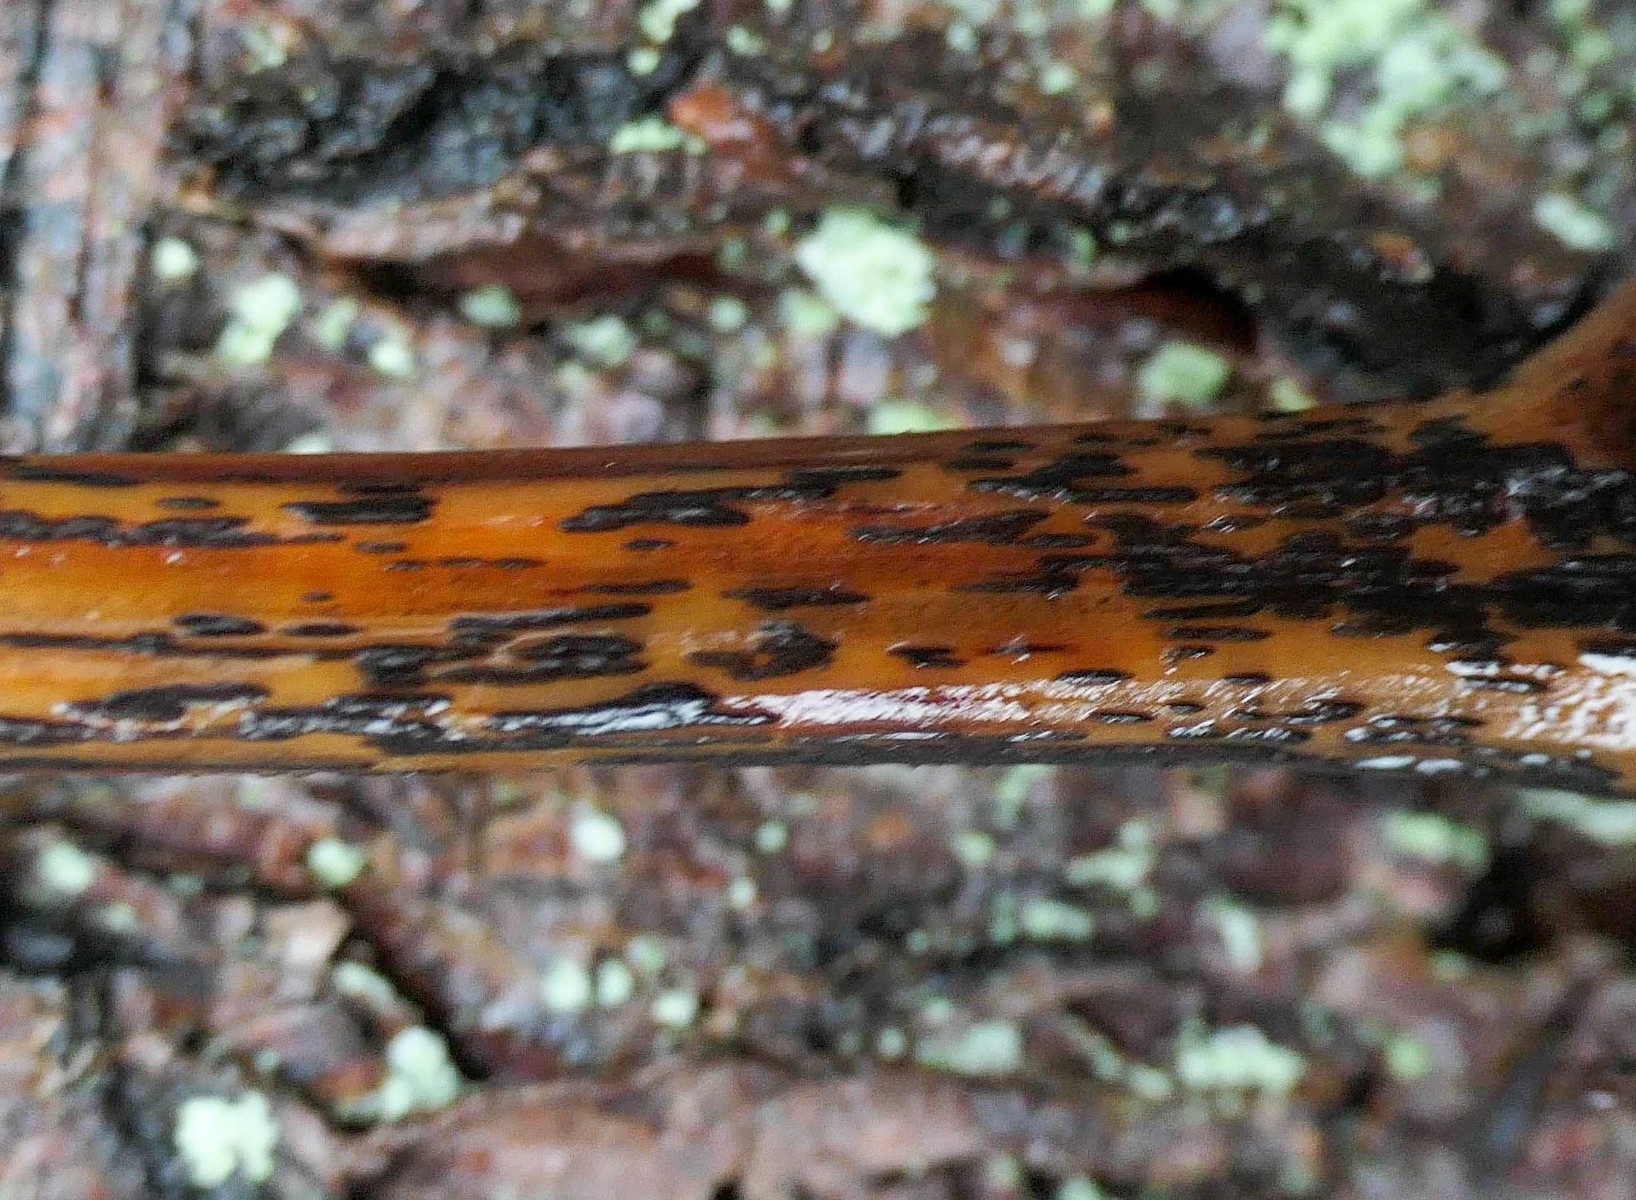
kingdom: Fungi
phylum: Ascomycota
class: Dothideomycetes
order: Pleosporales
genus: Rhopographus
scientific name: Rhopographus filicinus
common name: Bracken map
